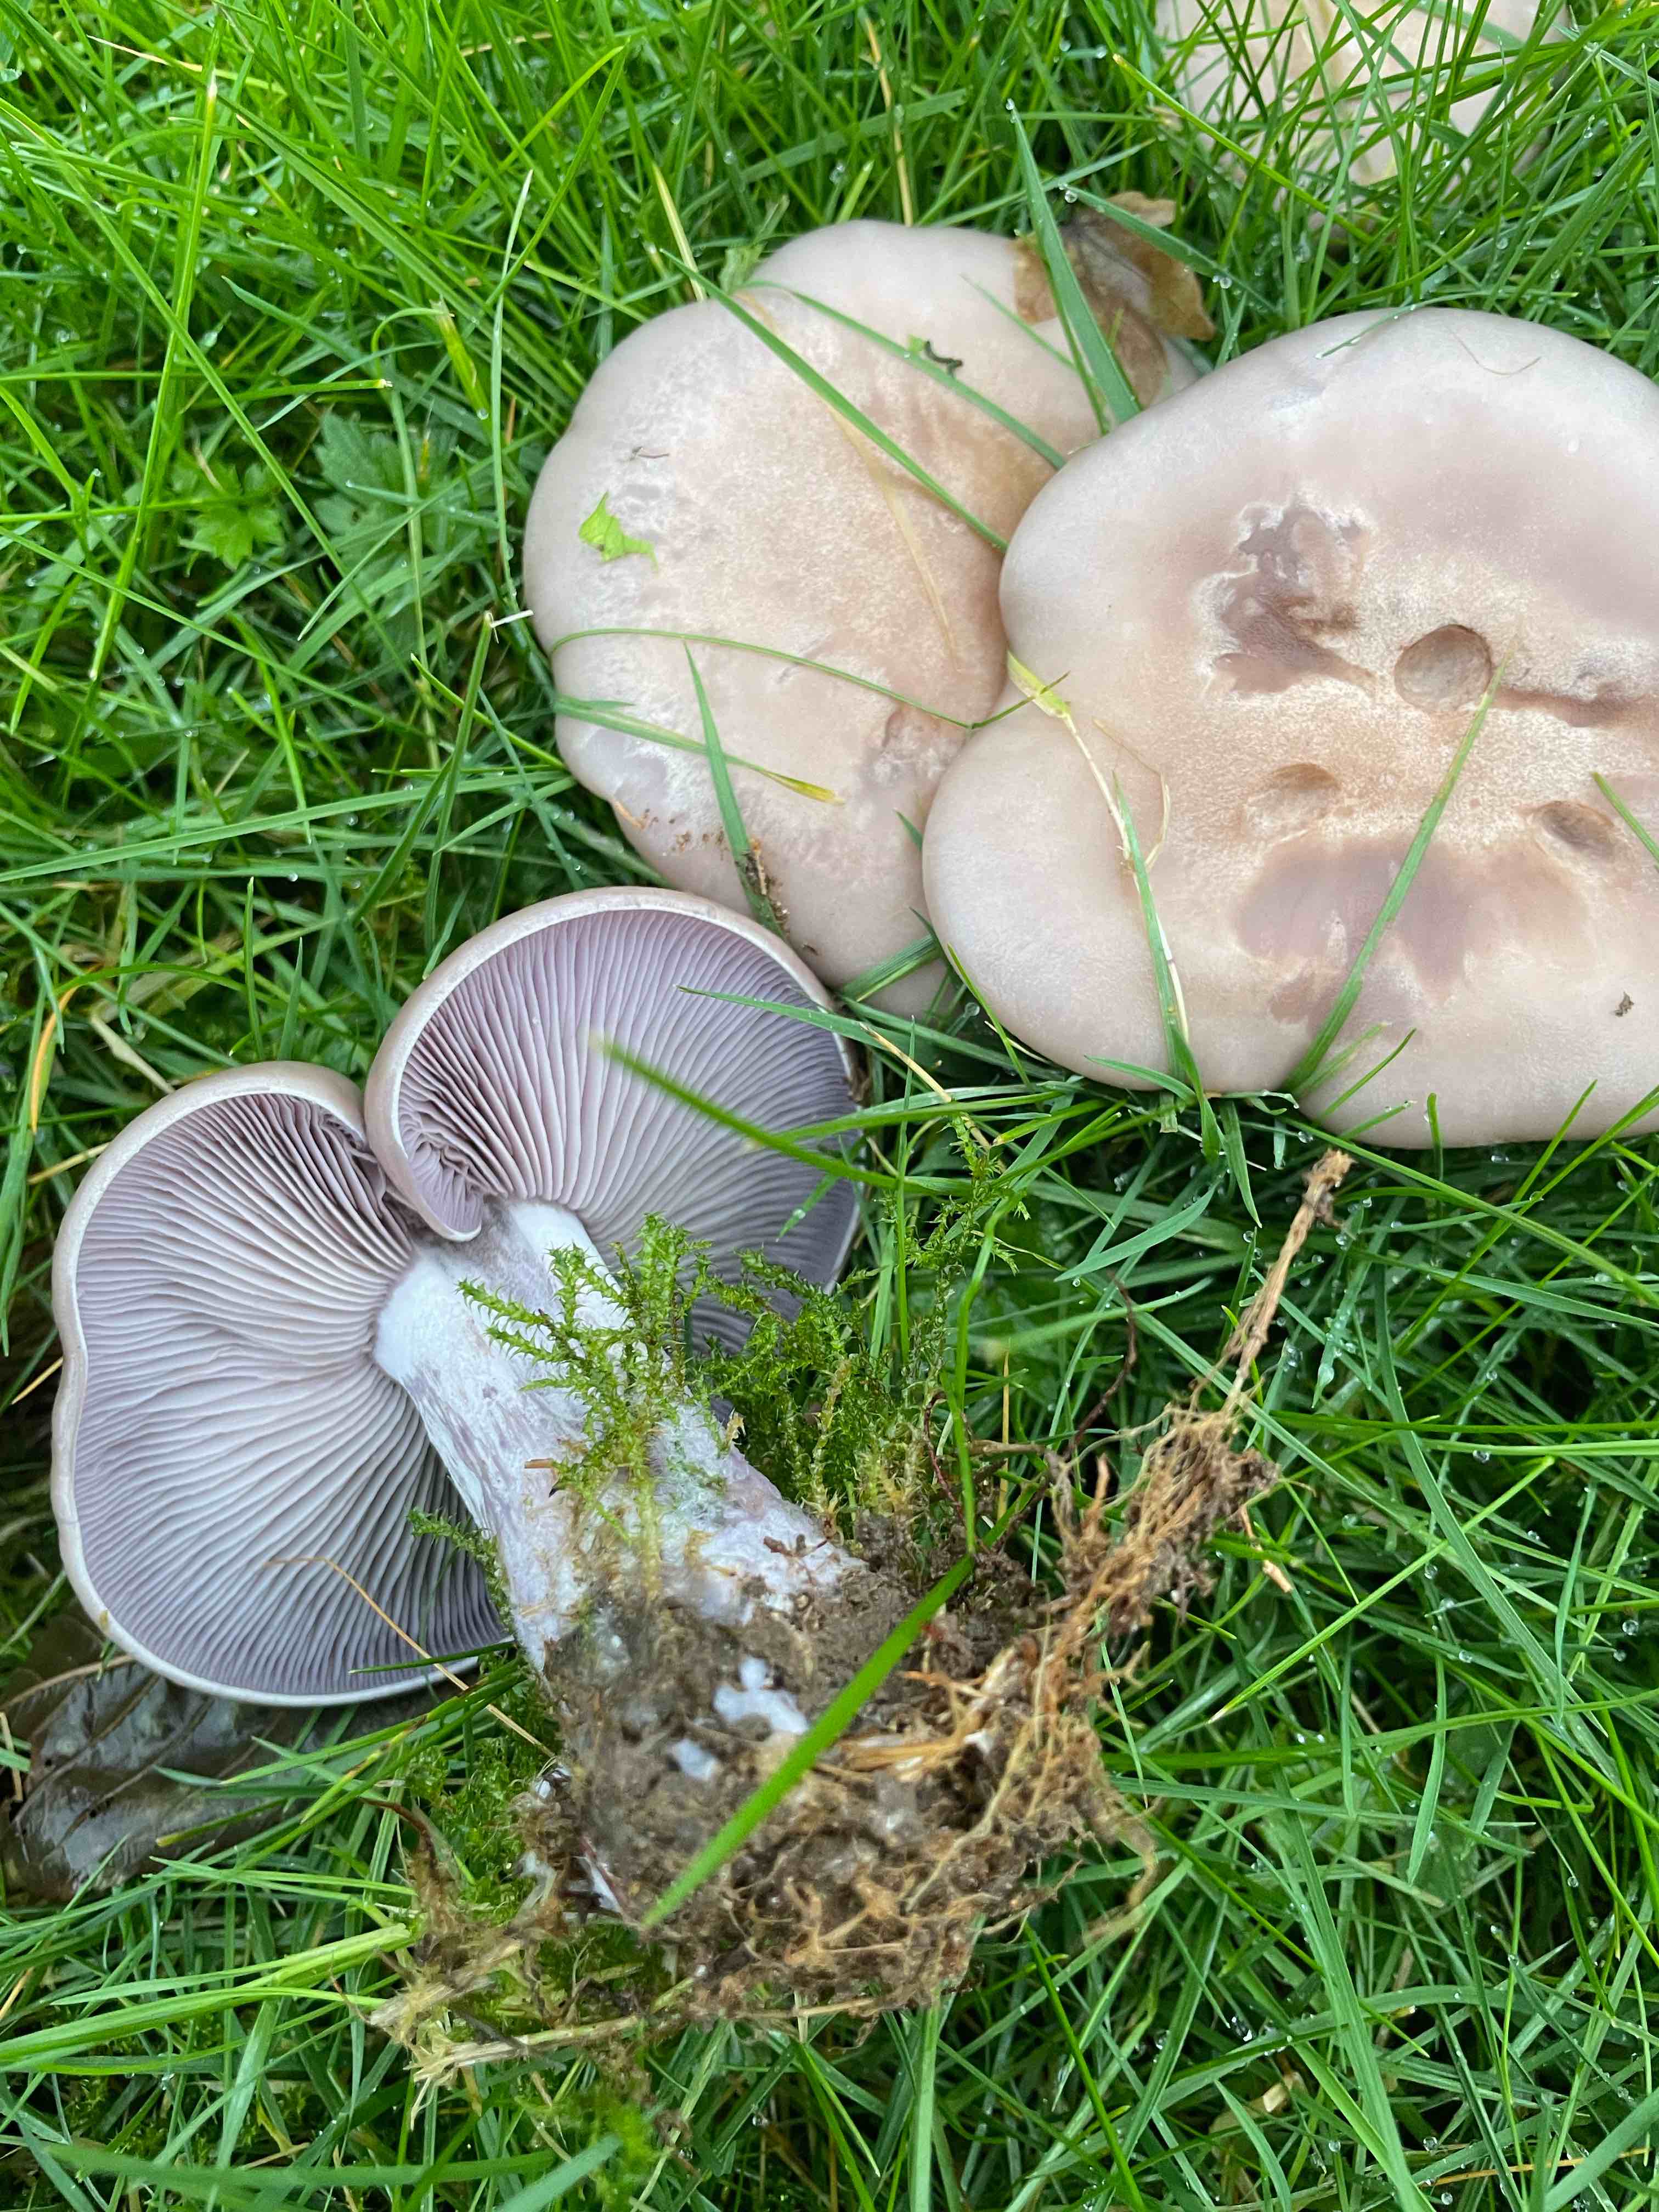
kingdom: Fungi
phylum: Basidiomycota
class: Agaricomycetes
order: Agaricales
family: Tricholomataceae
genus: Lepista
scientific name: Lepista nuda
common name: violet hekseringshat
